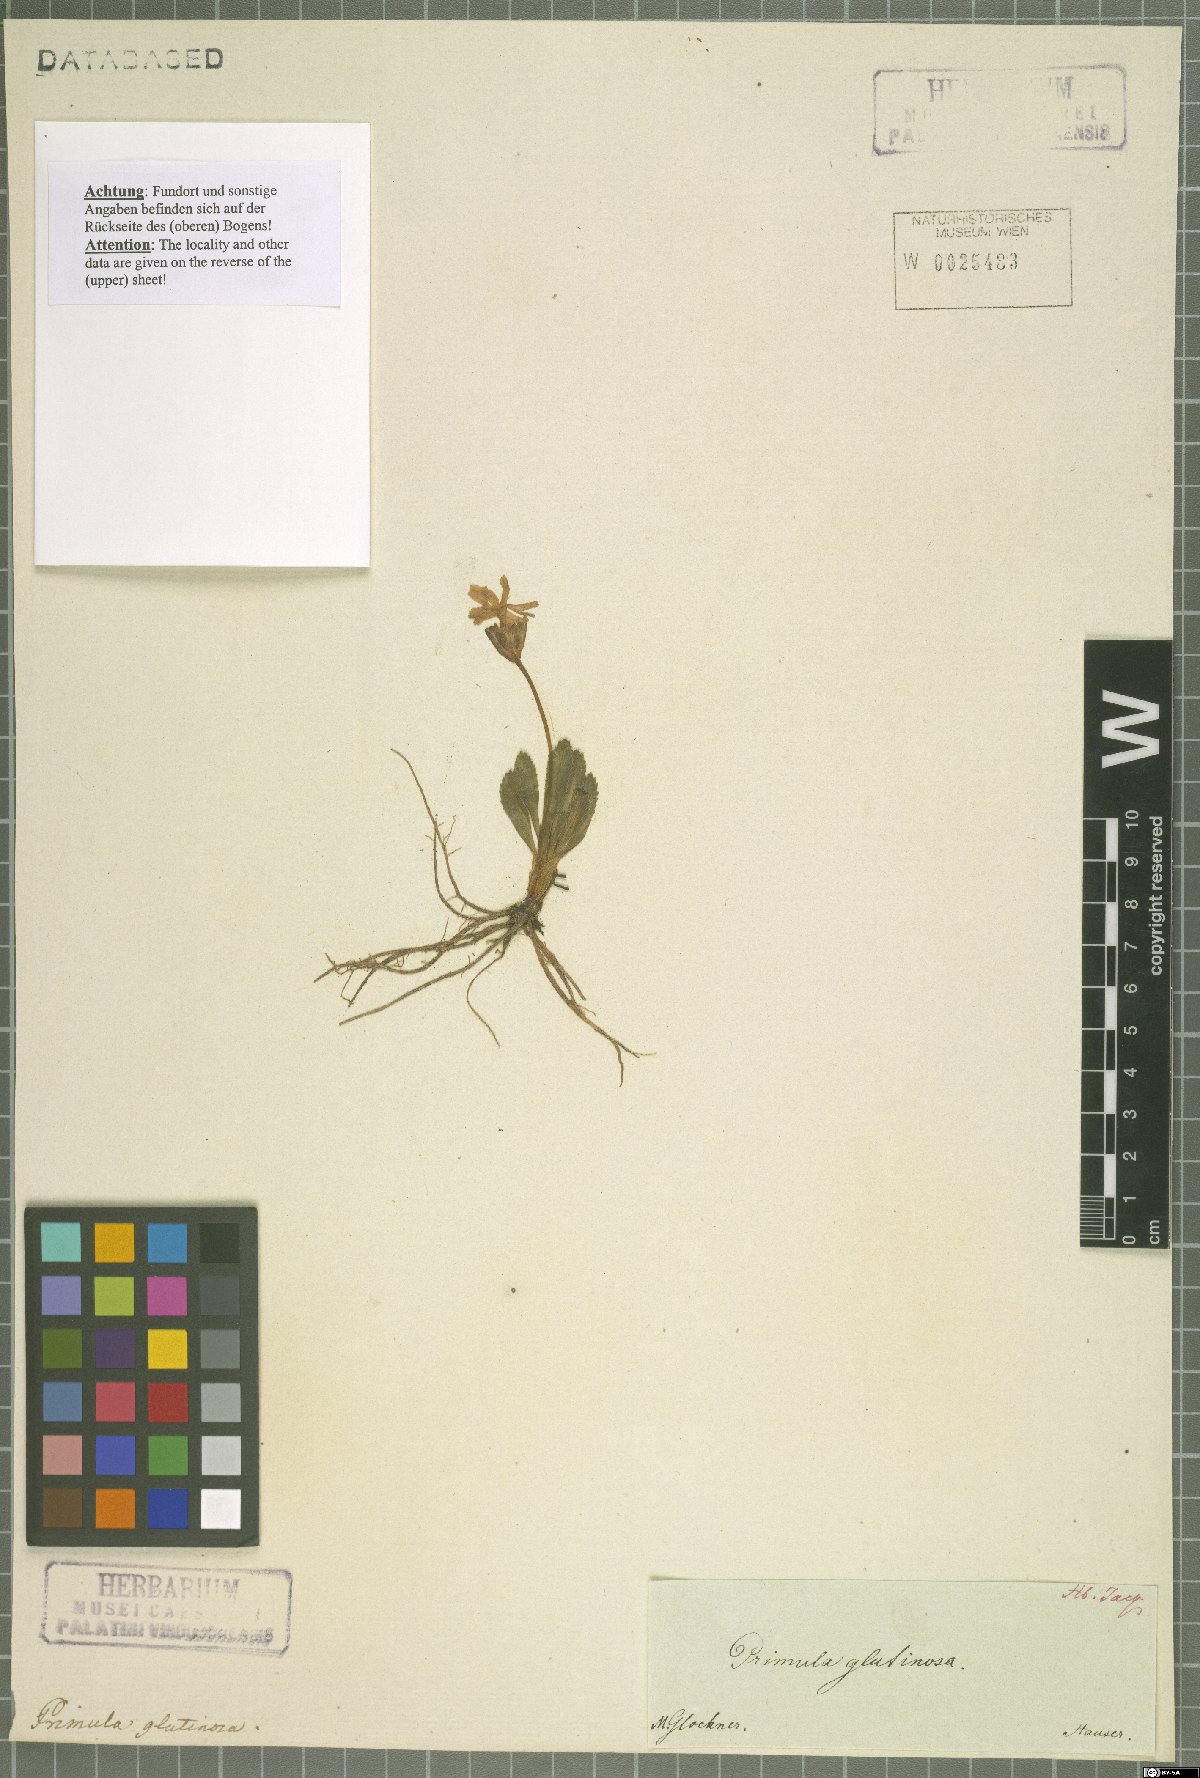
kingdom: Plantae
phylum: Tracheophyta
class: Magnoliopsida
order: Ericales
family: Primulaceae
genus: Primula
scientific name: Primula glutinosa
